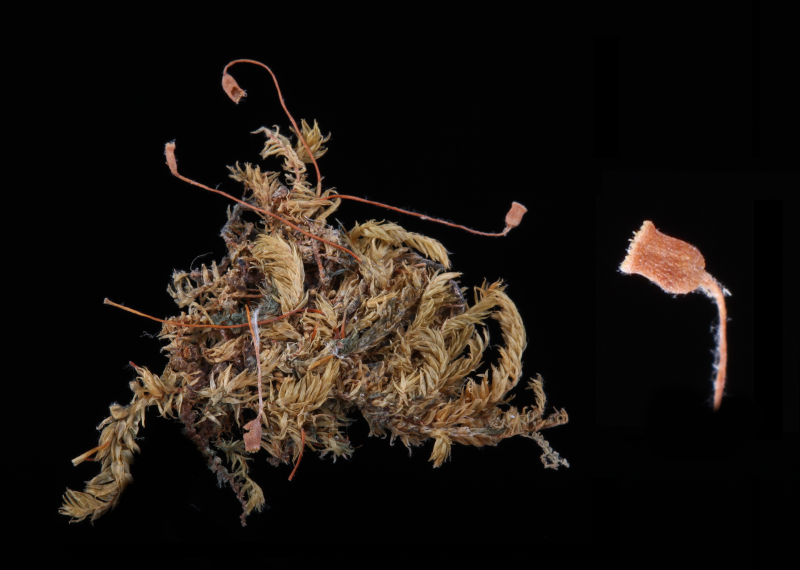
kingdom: Plantae
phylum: Bryophyta
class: Bryopsida
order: Hypnales
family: Sematophyllaceae
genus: Brittonodoxa
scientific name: Brittonodoxa subpinnata
